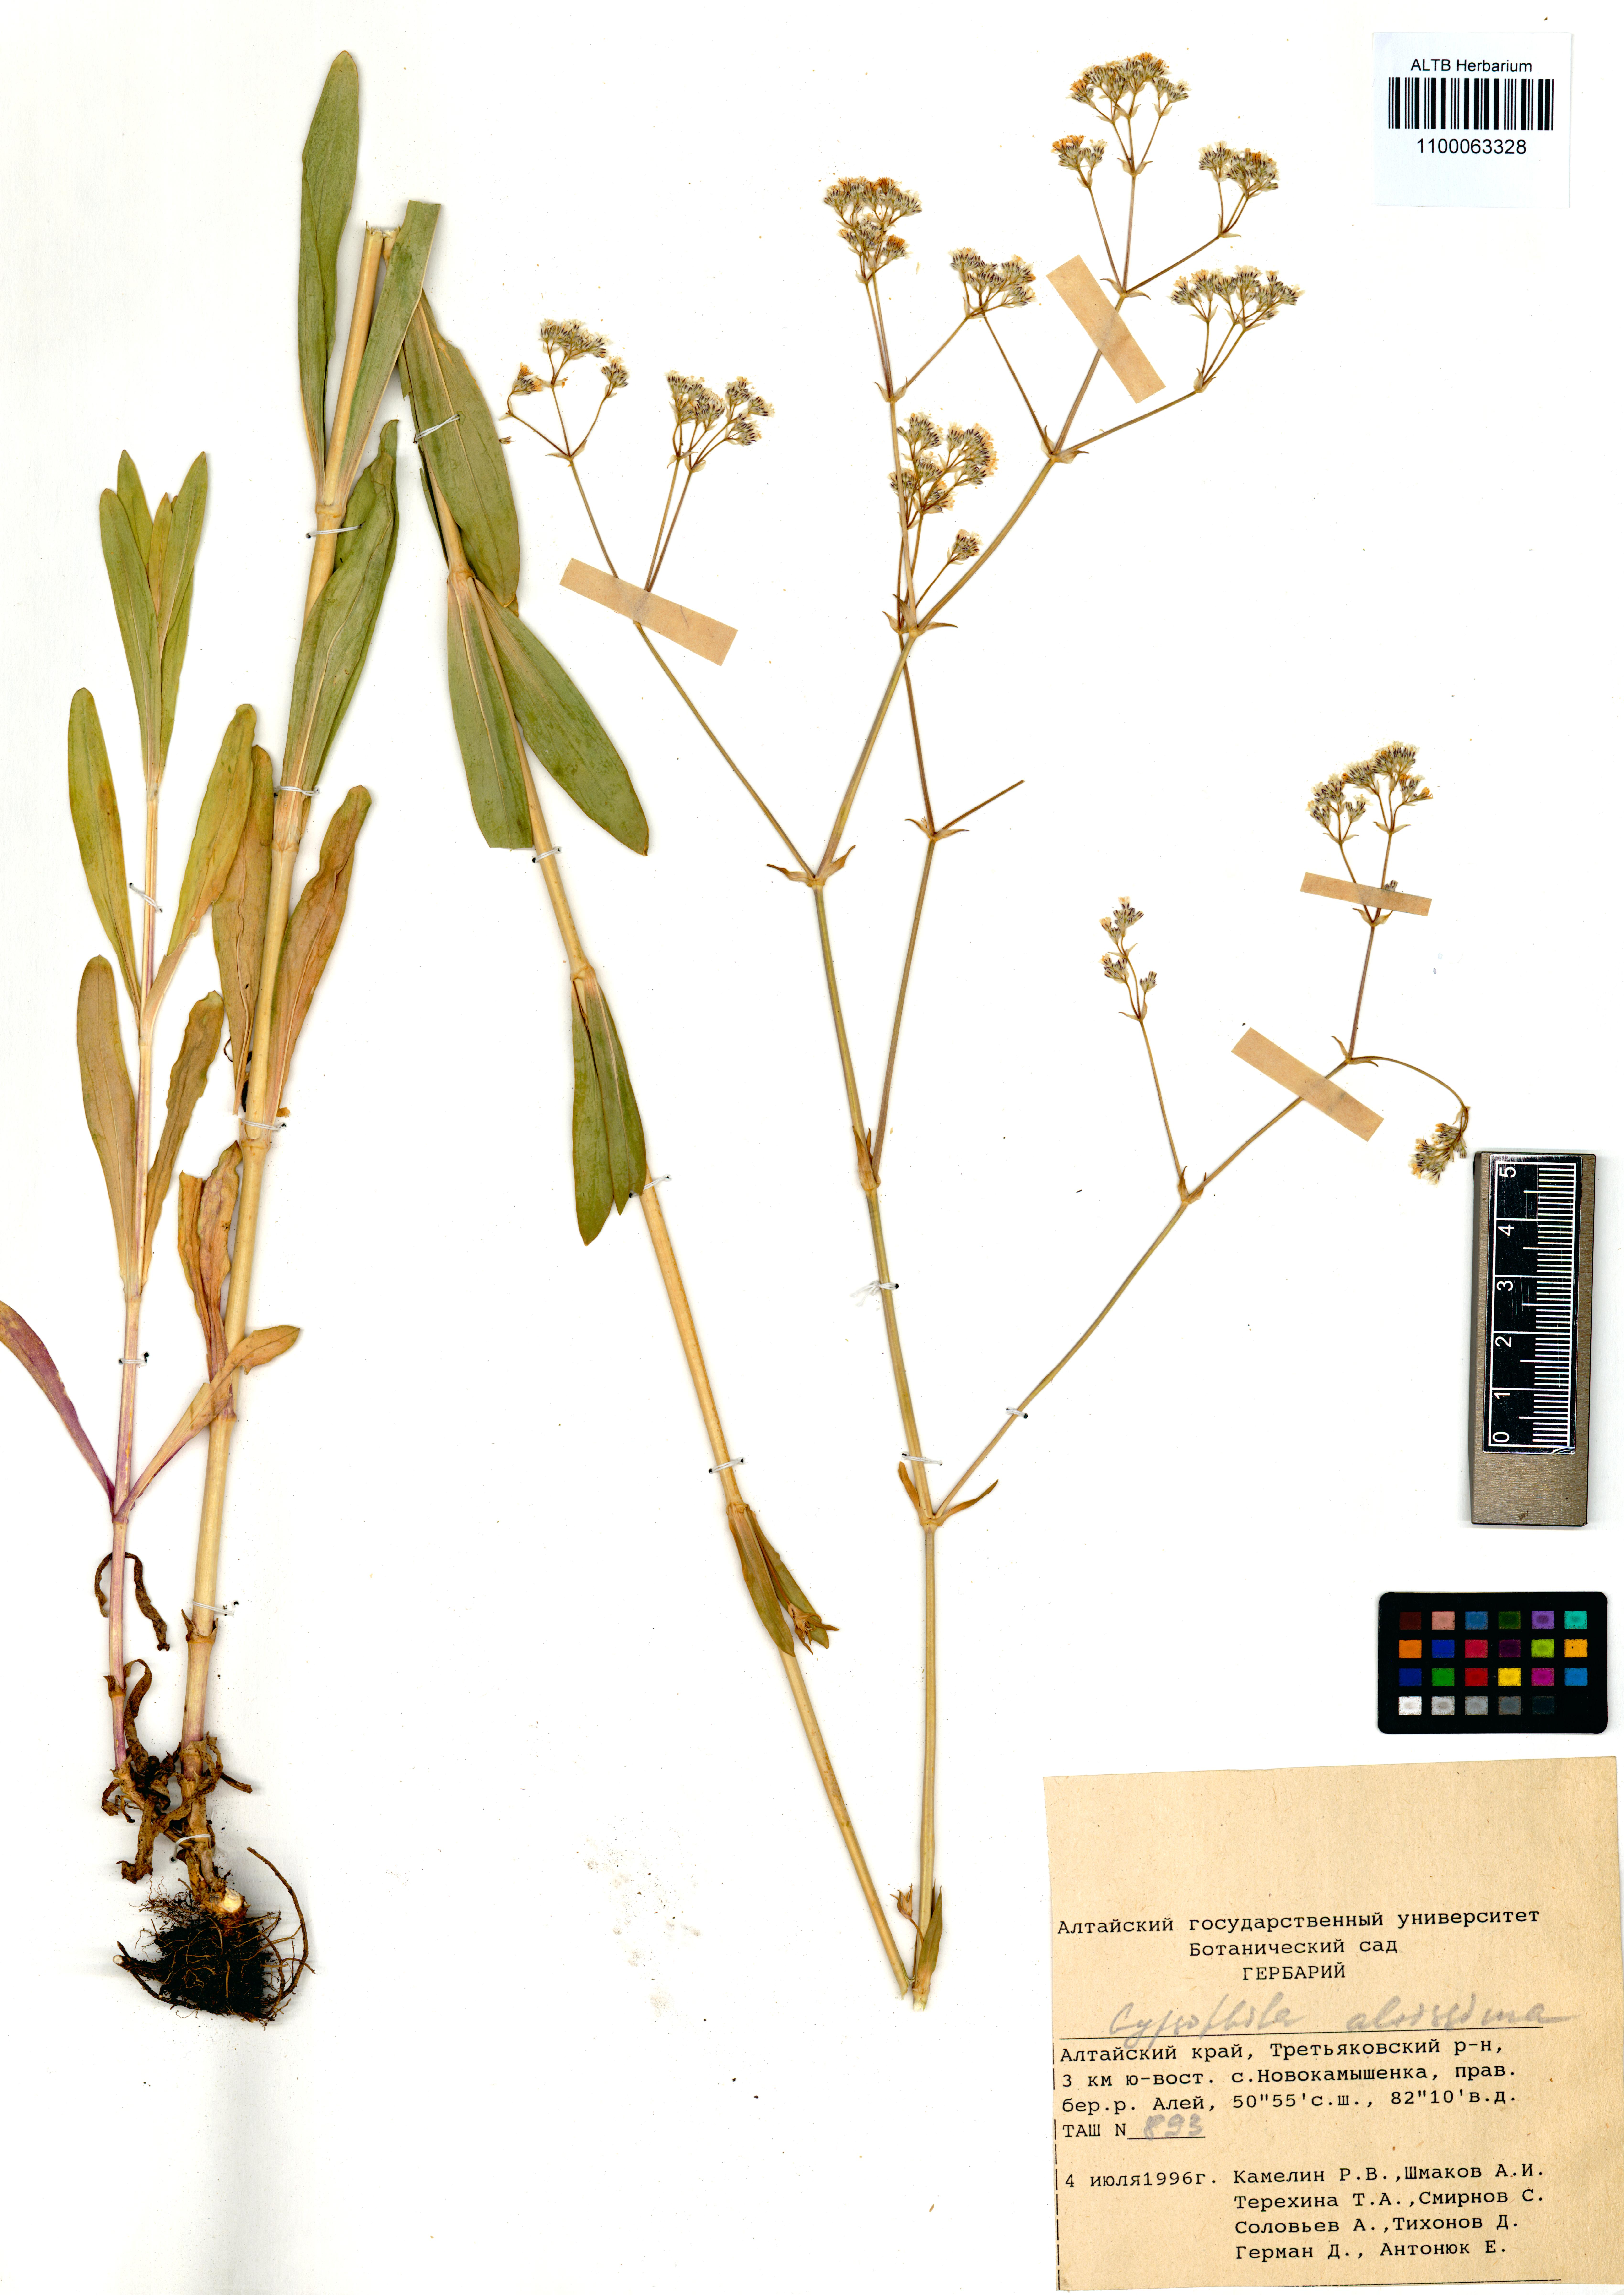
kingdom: Plantae
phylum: Tracheophyta
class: Magnoliopsida
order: Caryophyllales
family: Caryophyllaceae
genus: Gypsophila
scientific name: Gypsophila altissima
